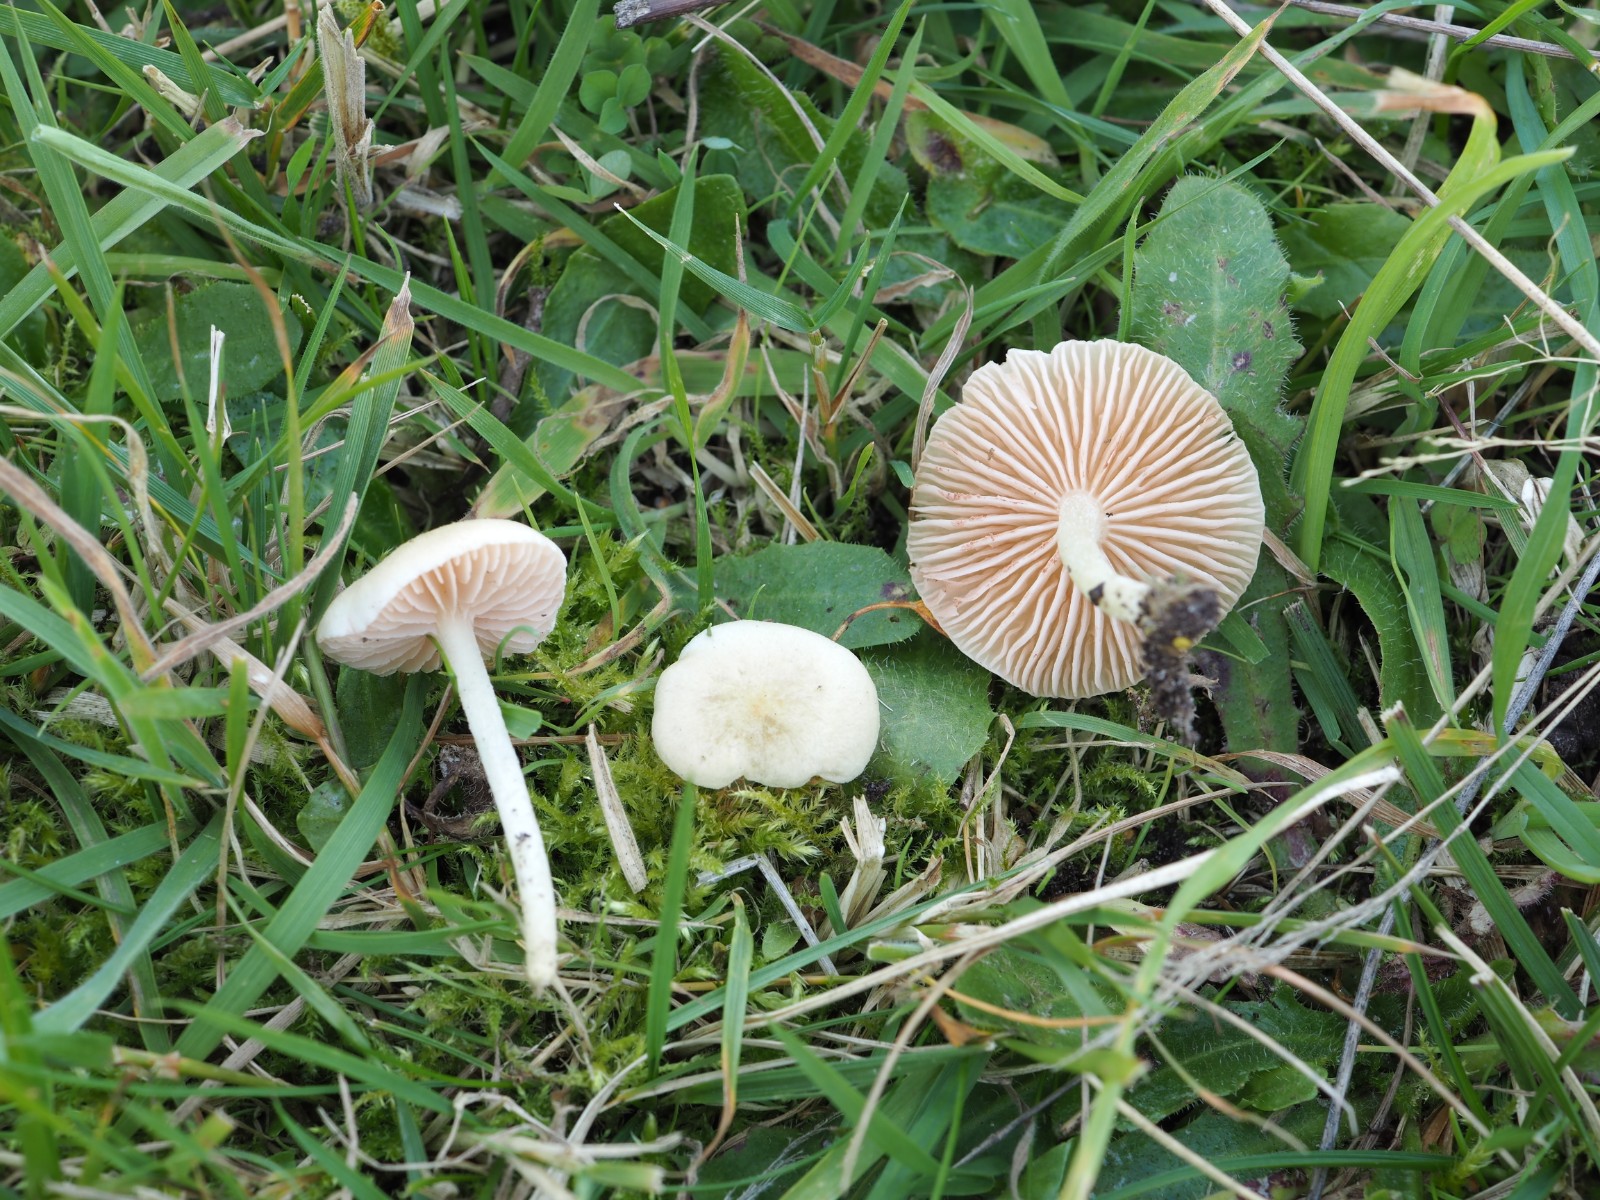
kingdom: Fungi
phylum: Basidiomycota
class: Agaricomycetes
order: Agaricales
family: Entolomataceae
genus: Entoloma
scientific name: Entoloma sericellum
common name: silkehvid rødblad
